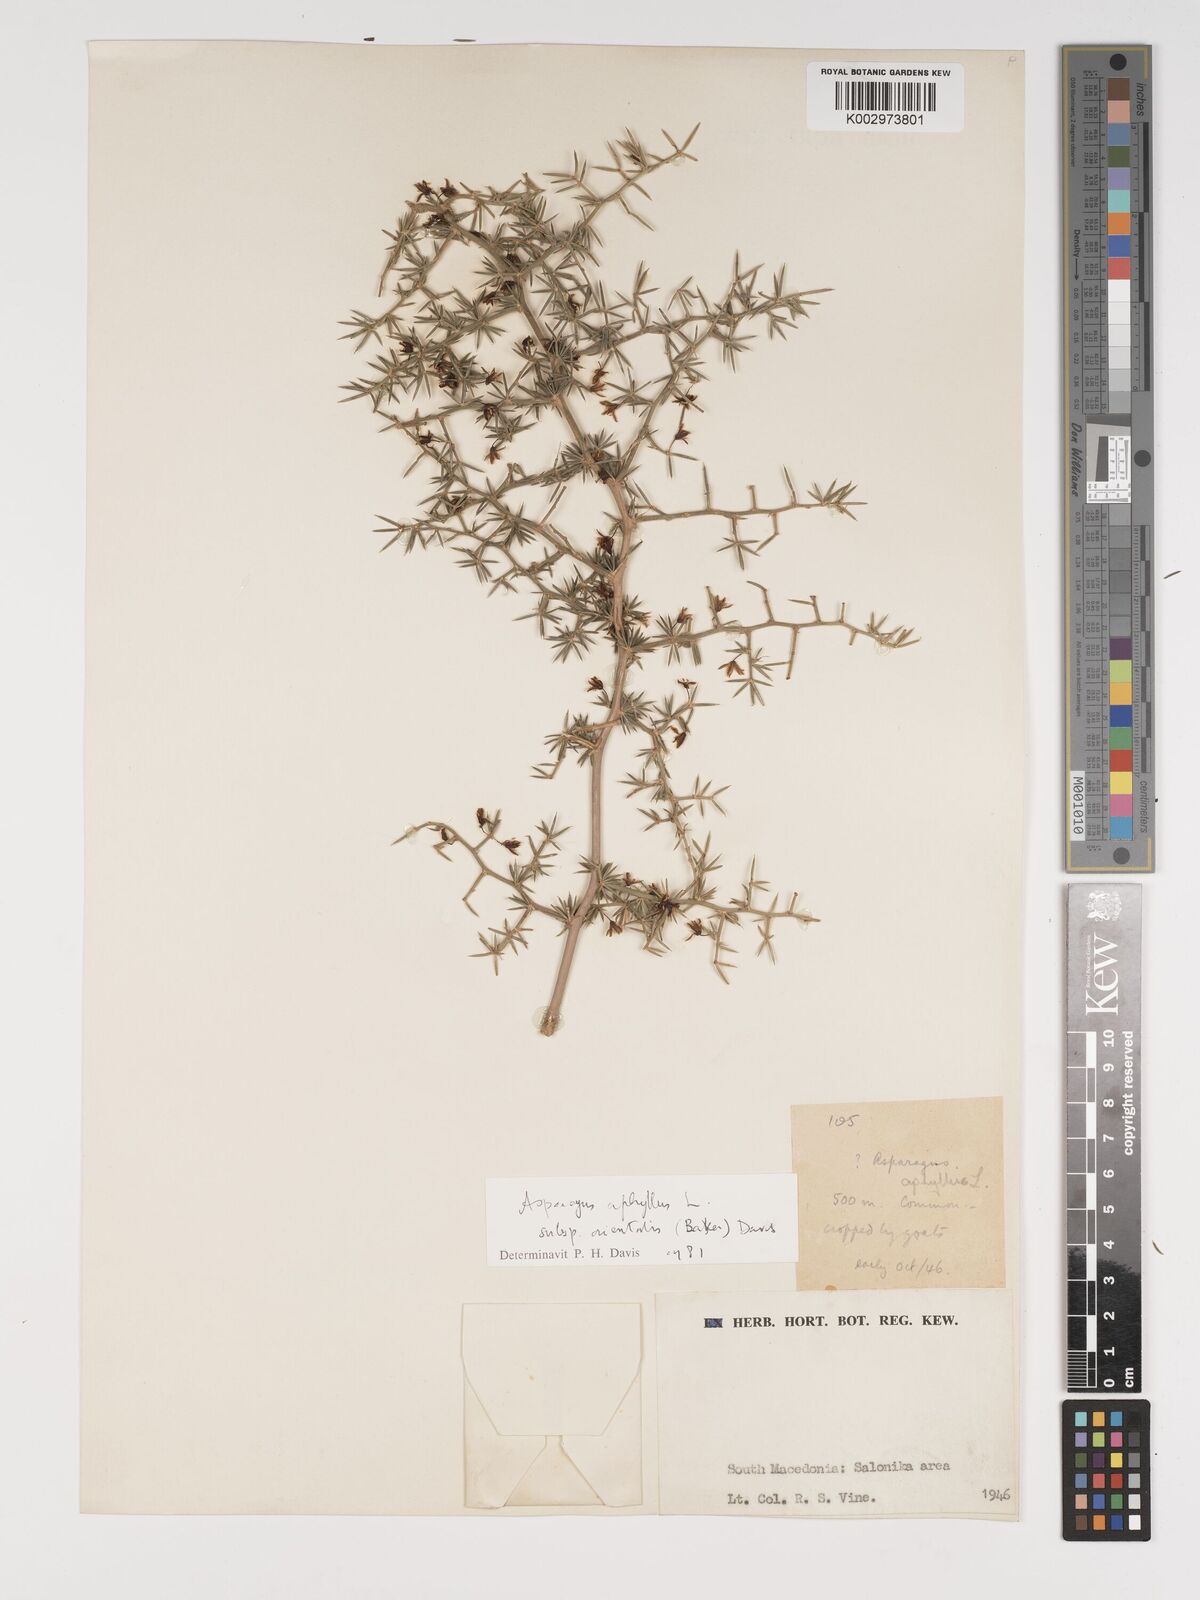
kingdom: Plantae
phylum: Tracheophyta
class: Liliopsida
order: Asparagales
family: Asparagaceae
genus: Asparagus
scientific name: Asparagus aphyllus
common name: Mediterranean asparagus
